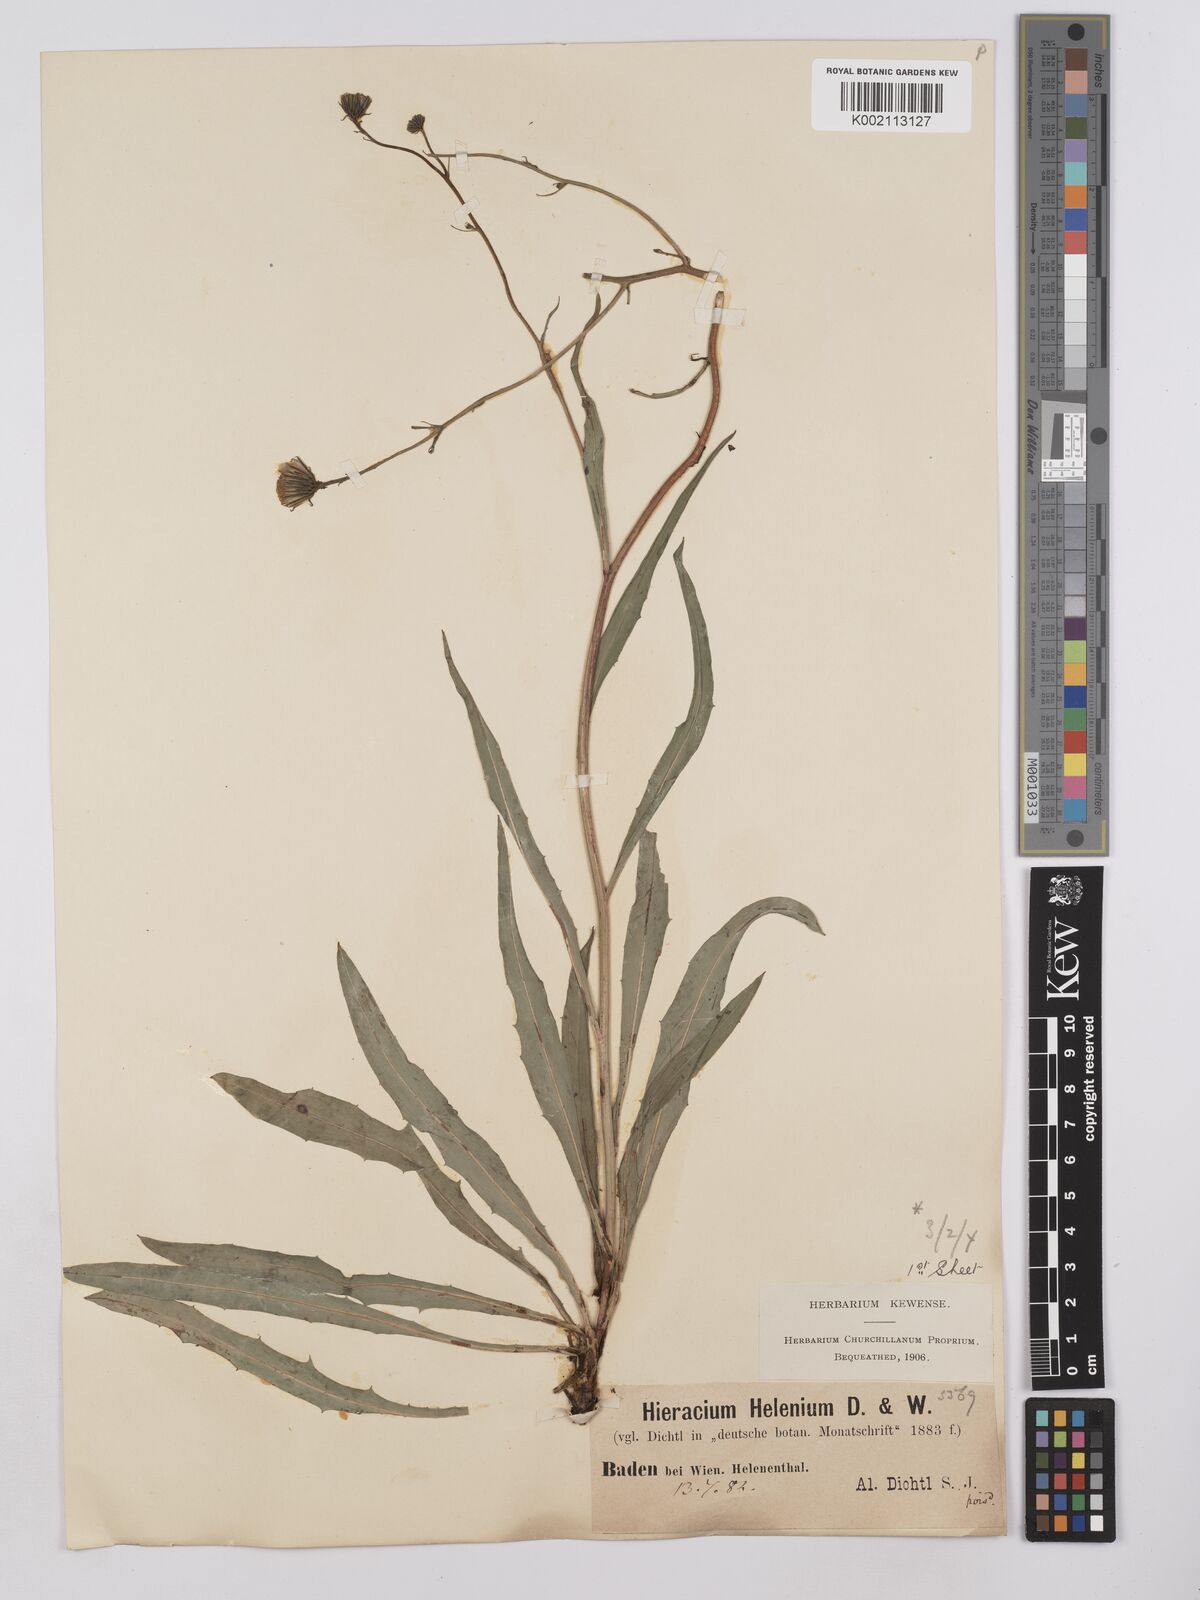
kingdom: Plantae
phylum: Tracheophyta
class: Magnoliopsida
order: Asterales
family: Asteraceae
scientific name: Asteraceae
